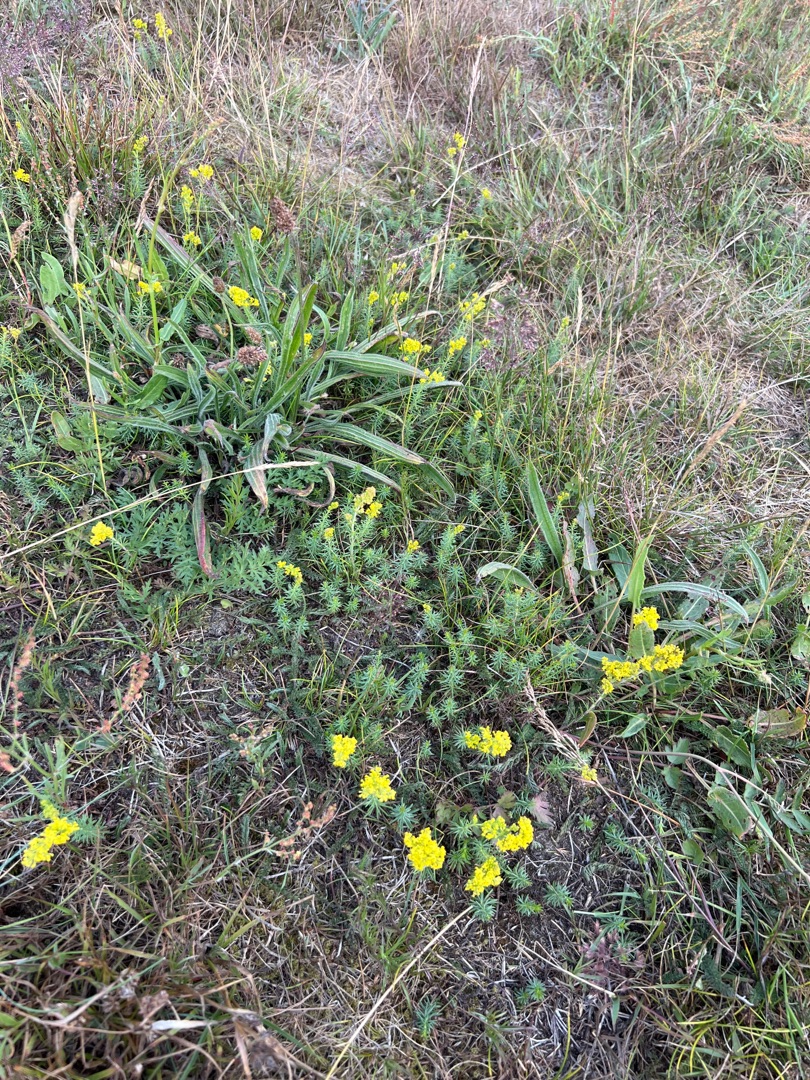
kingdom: Plantae
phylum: Tracheophyta
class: Magnoliopsida
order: Gentianales
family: Rubiaceae
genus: Galium
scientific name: Galium verum
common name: Gul snerre
